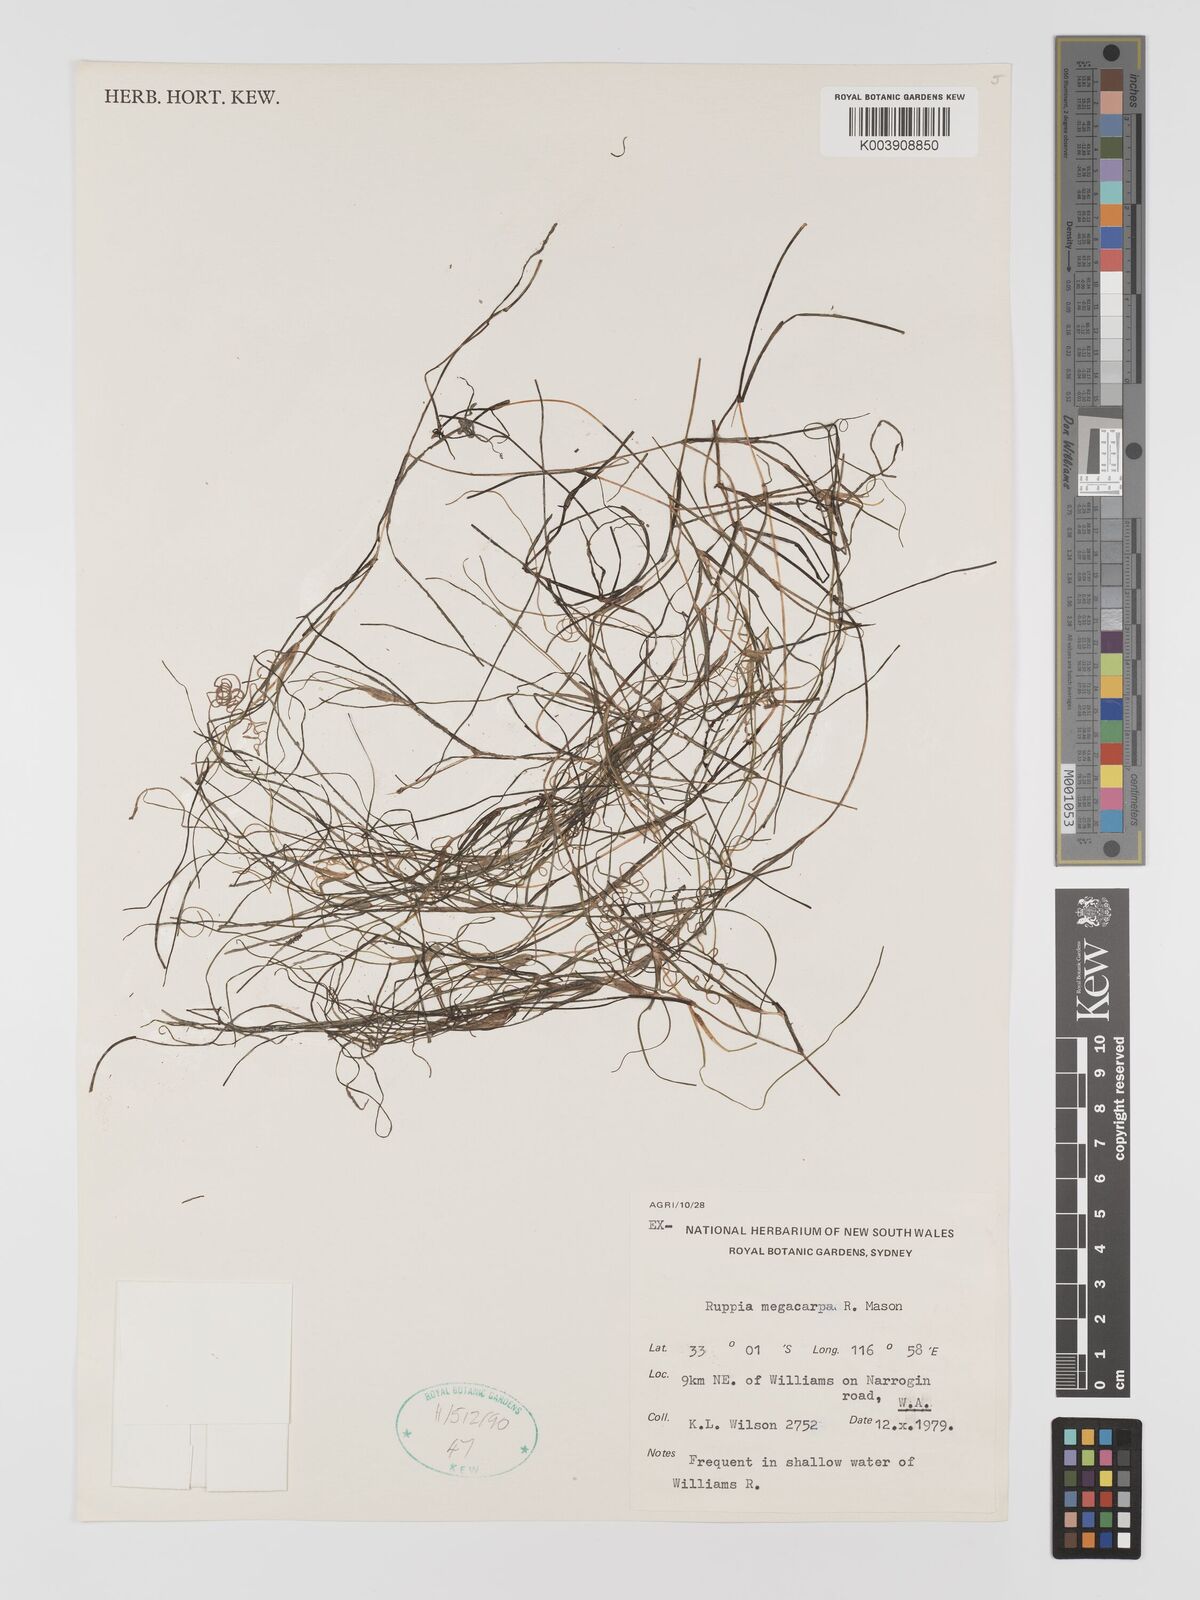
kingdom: Plantae
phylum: Tracheophyta
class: Liliopsida
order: Alismatales
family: Ruppiaceae
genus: Ruppia
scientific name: Ruppia megacarpa
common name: Large-fruit seatassel
